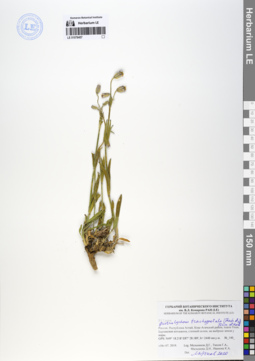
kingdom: Plantae
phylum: Tracheophyta
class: Magnoliopsida
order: Caryophyllales
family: Caryophyllaceae
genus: Silene
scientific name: Silene songarica
